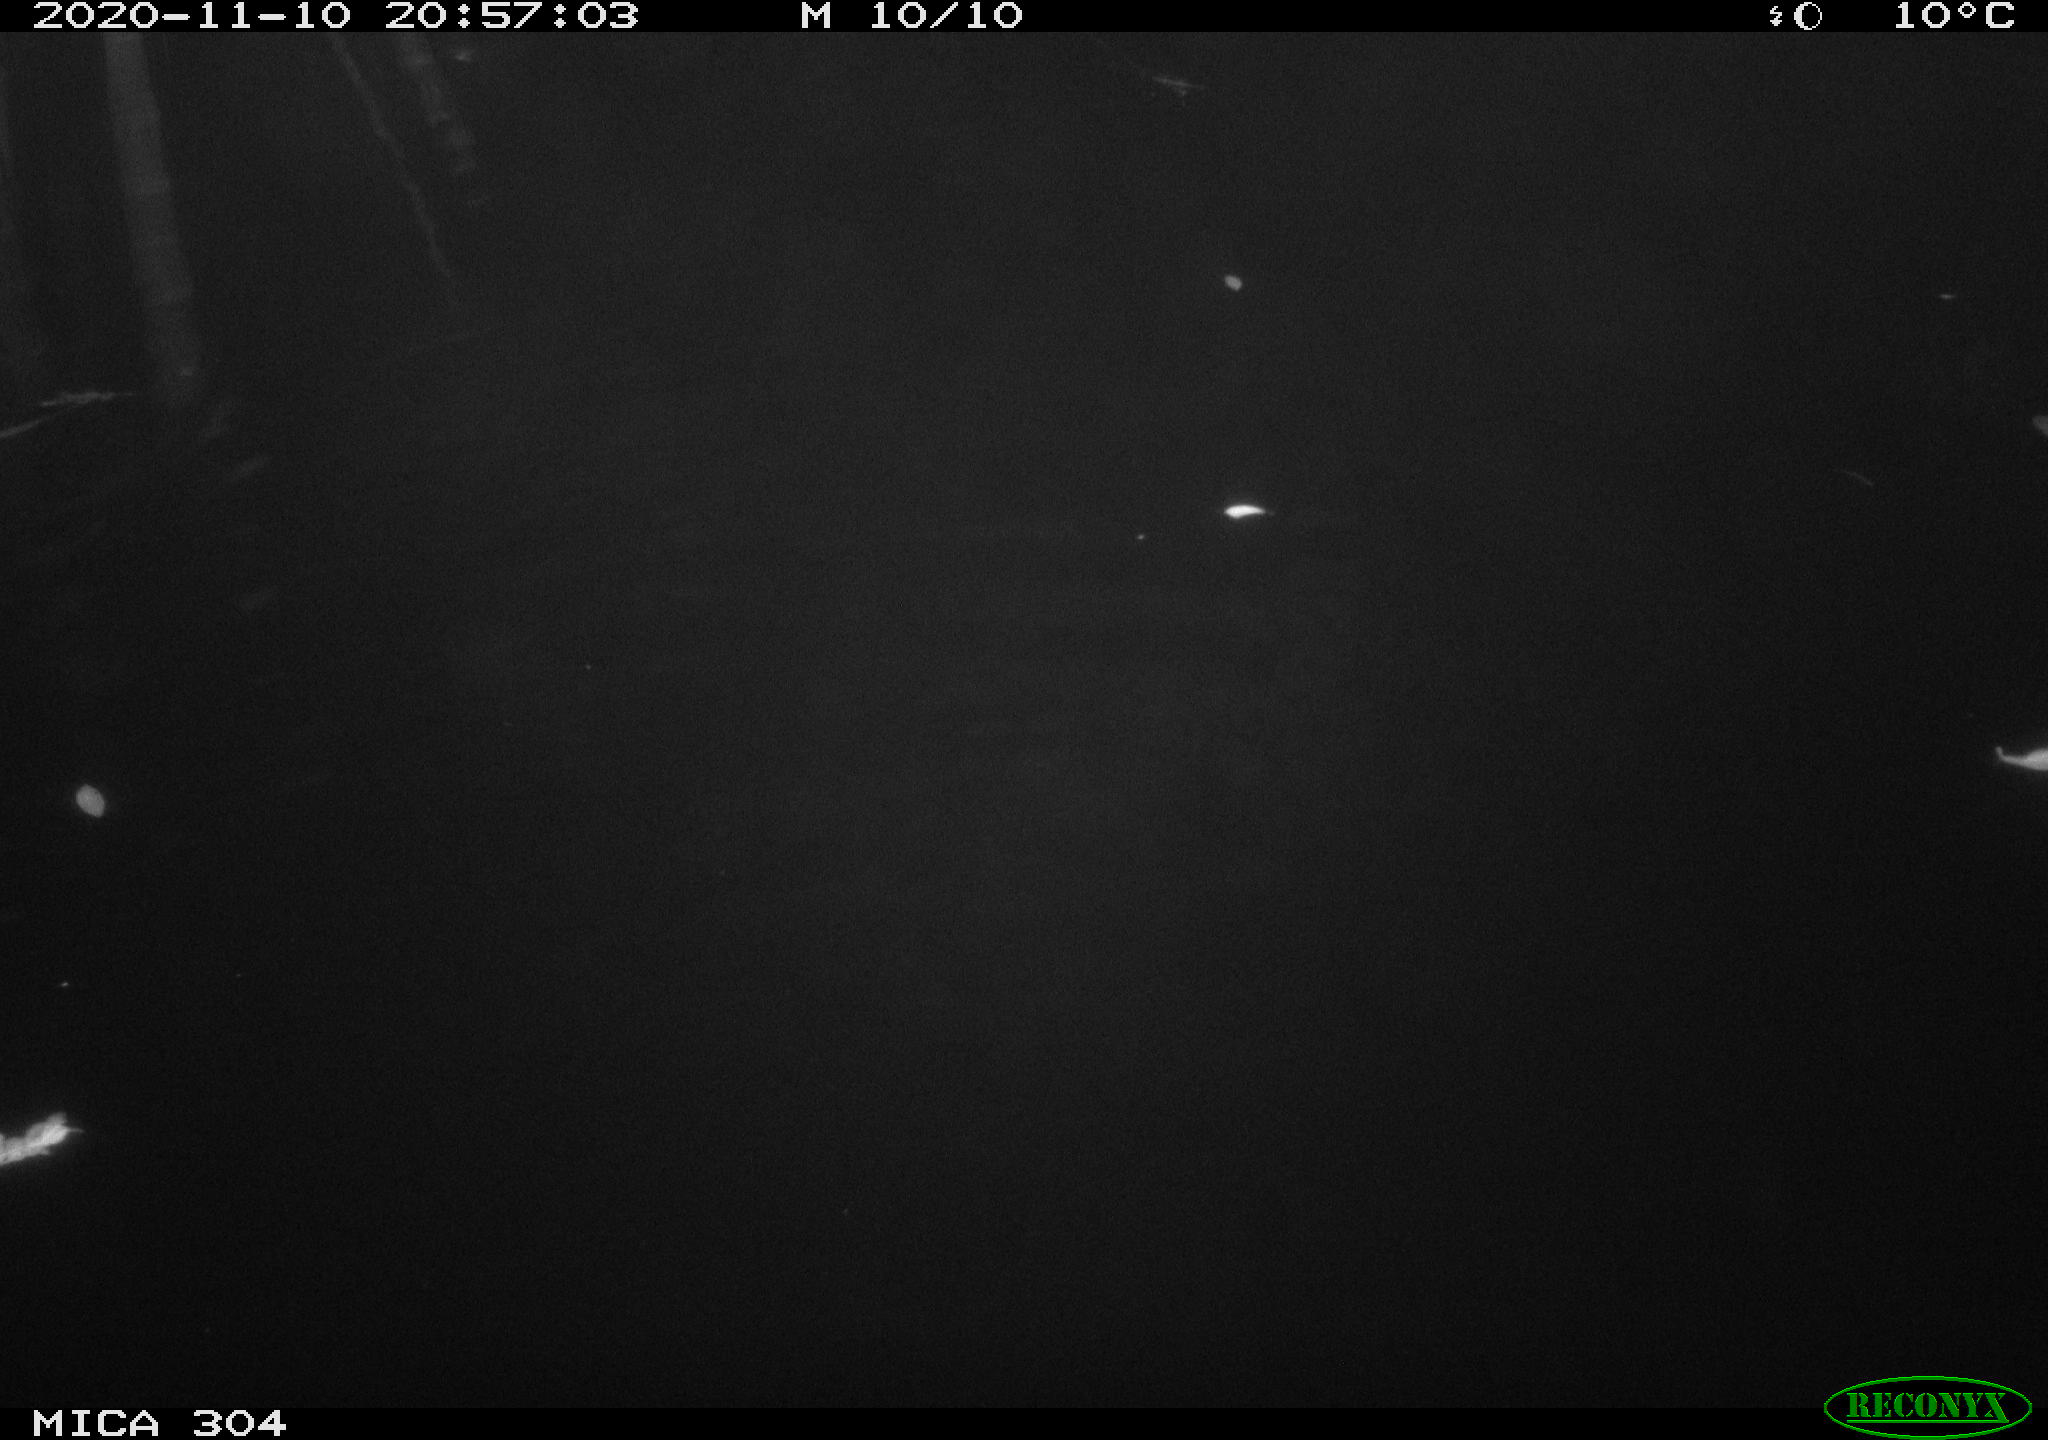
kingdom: Animalia
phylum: Chordata
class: Aves
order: Anseriformes
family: Anatidae
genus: Anas
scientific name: Anas platyrhynchos
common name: Mallard
